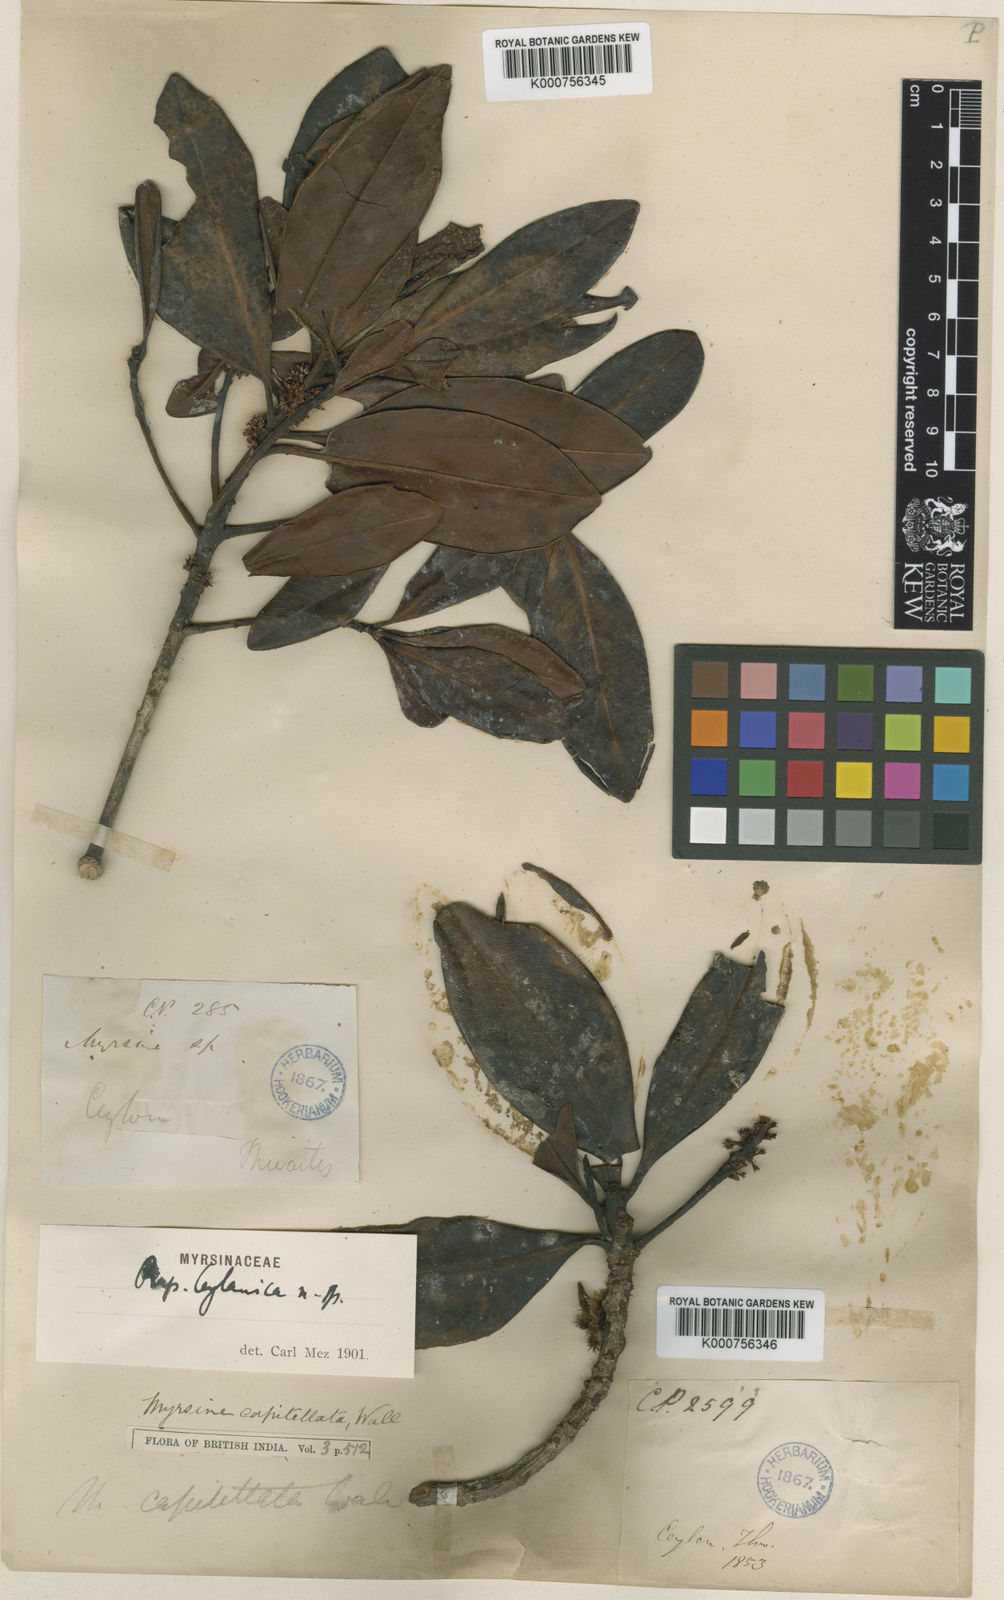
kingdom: Plantae
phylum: Tracheophyta
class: Magnoliopsida
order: Ericales
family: Primulaceae
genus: Myrsine
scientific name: Myrsine ceylanica
